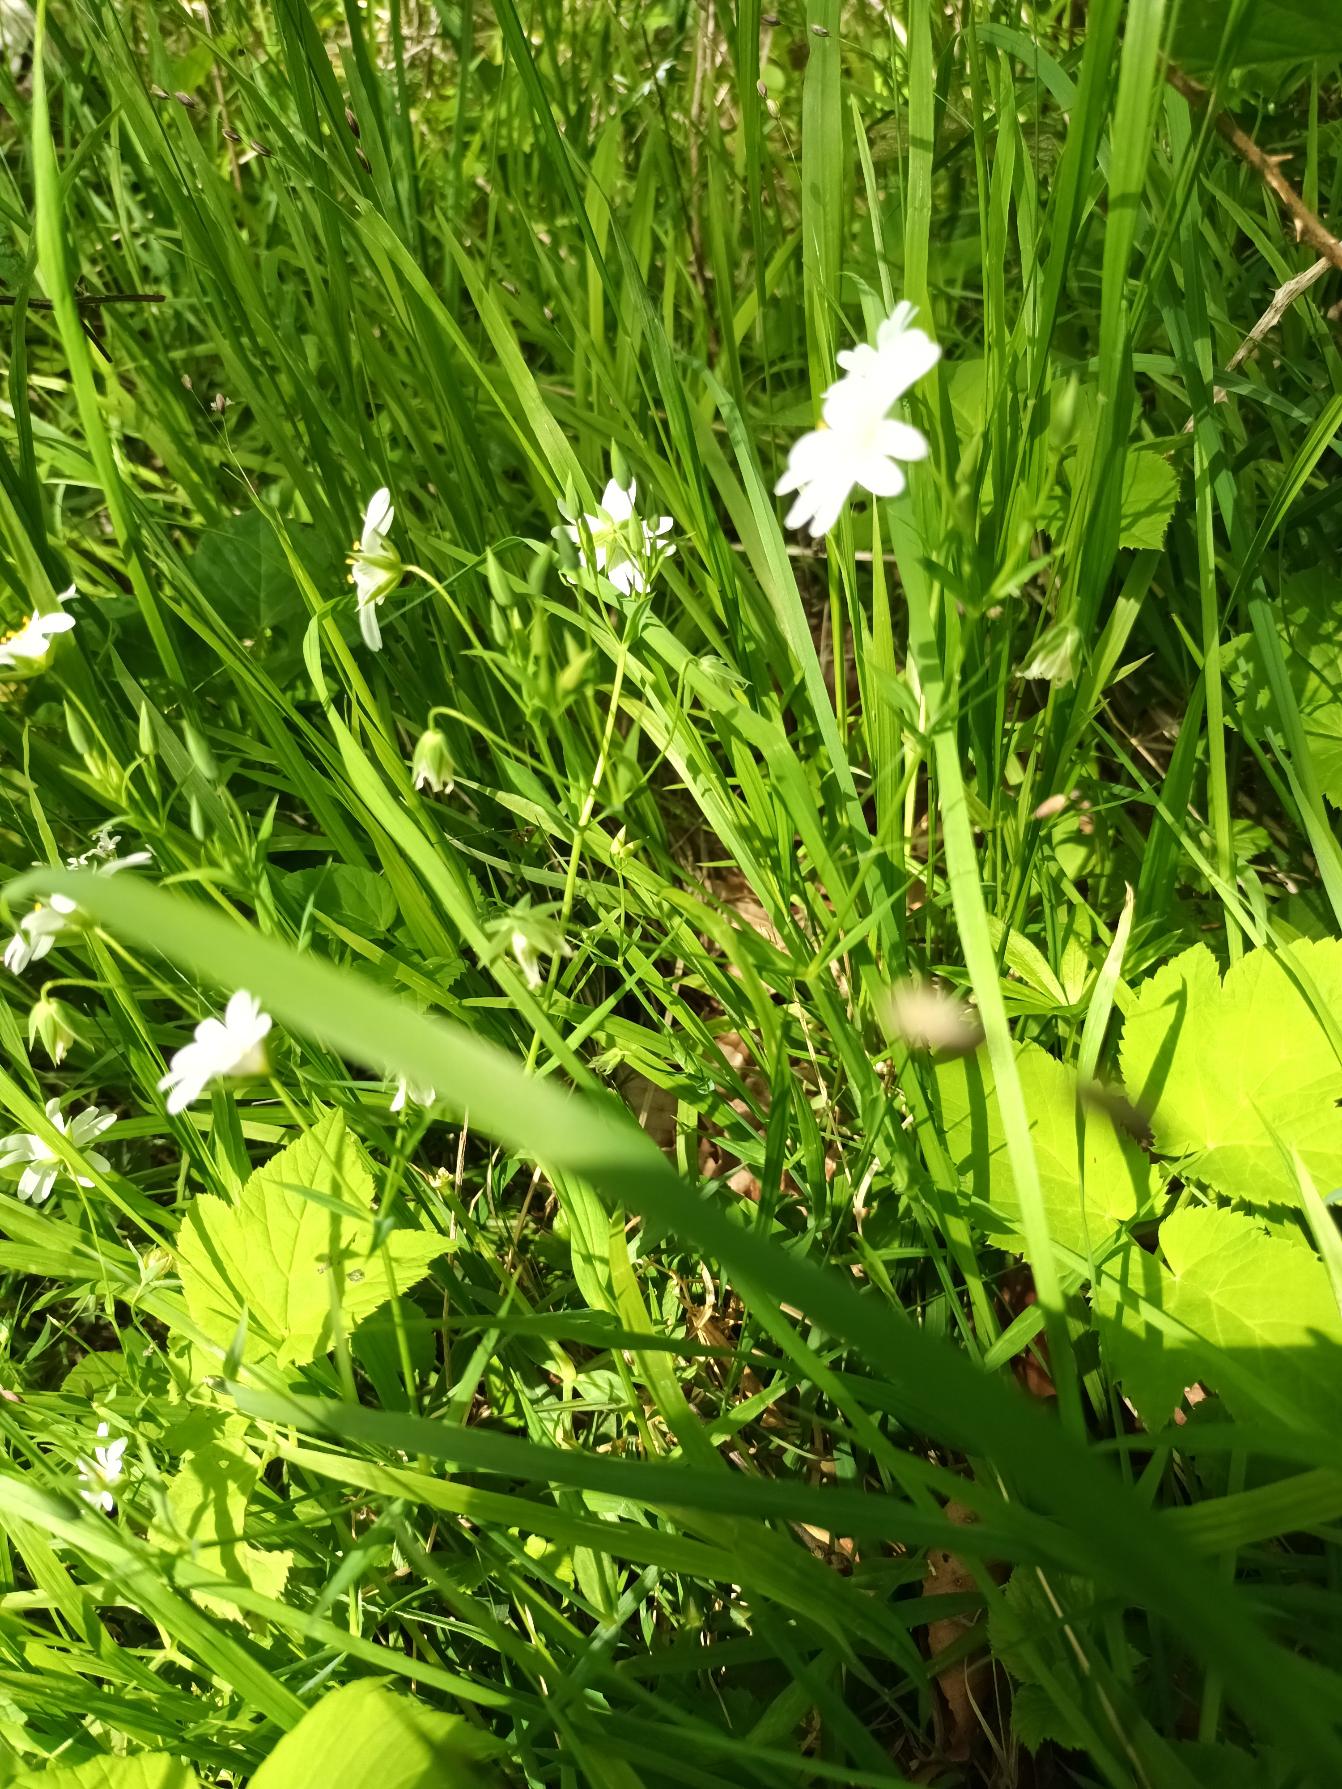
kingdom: Plantae
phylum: Tracheophyta
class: Magnoliopsida
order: Caryophyllales
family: Caryophyllaceae
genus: Rabelera
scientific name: Rabelera holostea
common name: Stor fladstjerne
